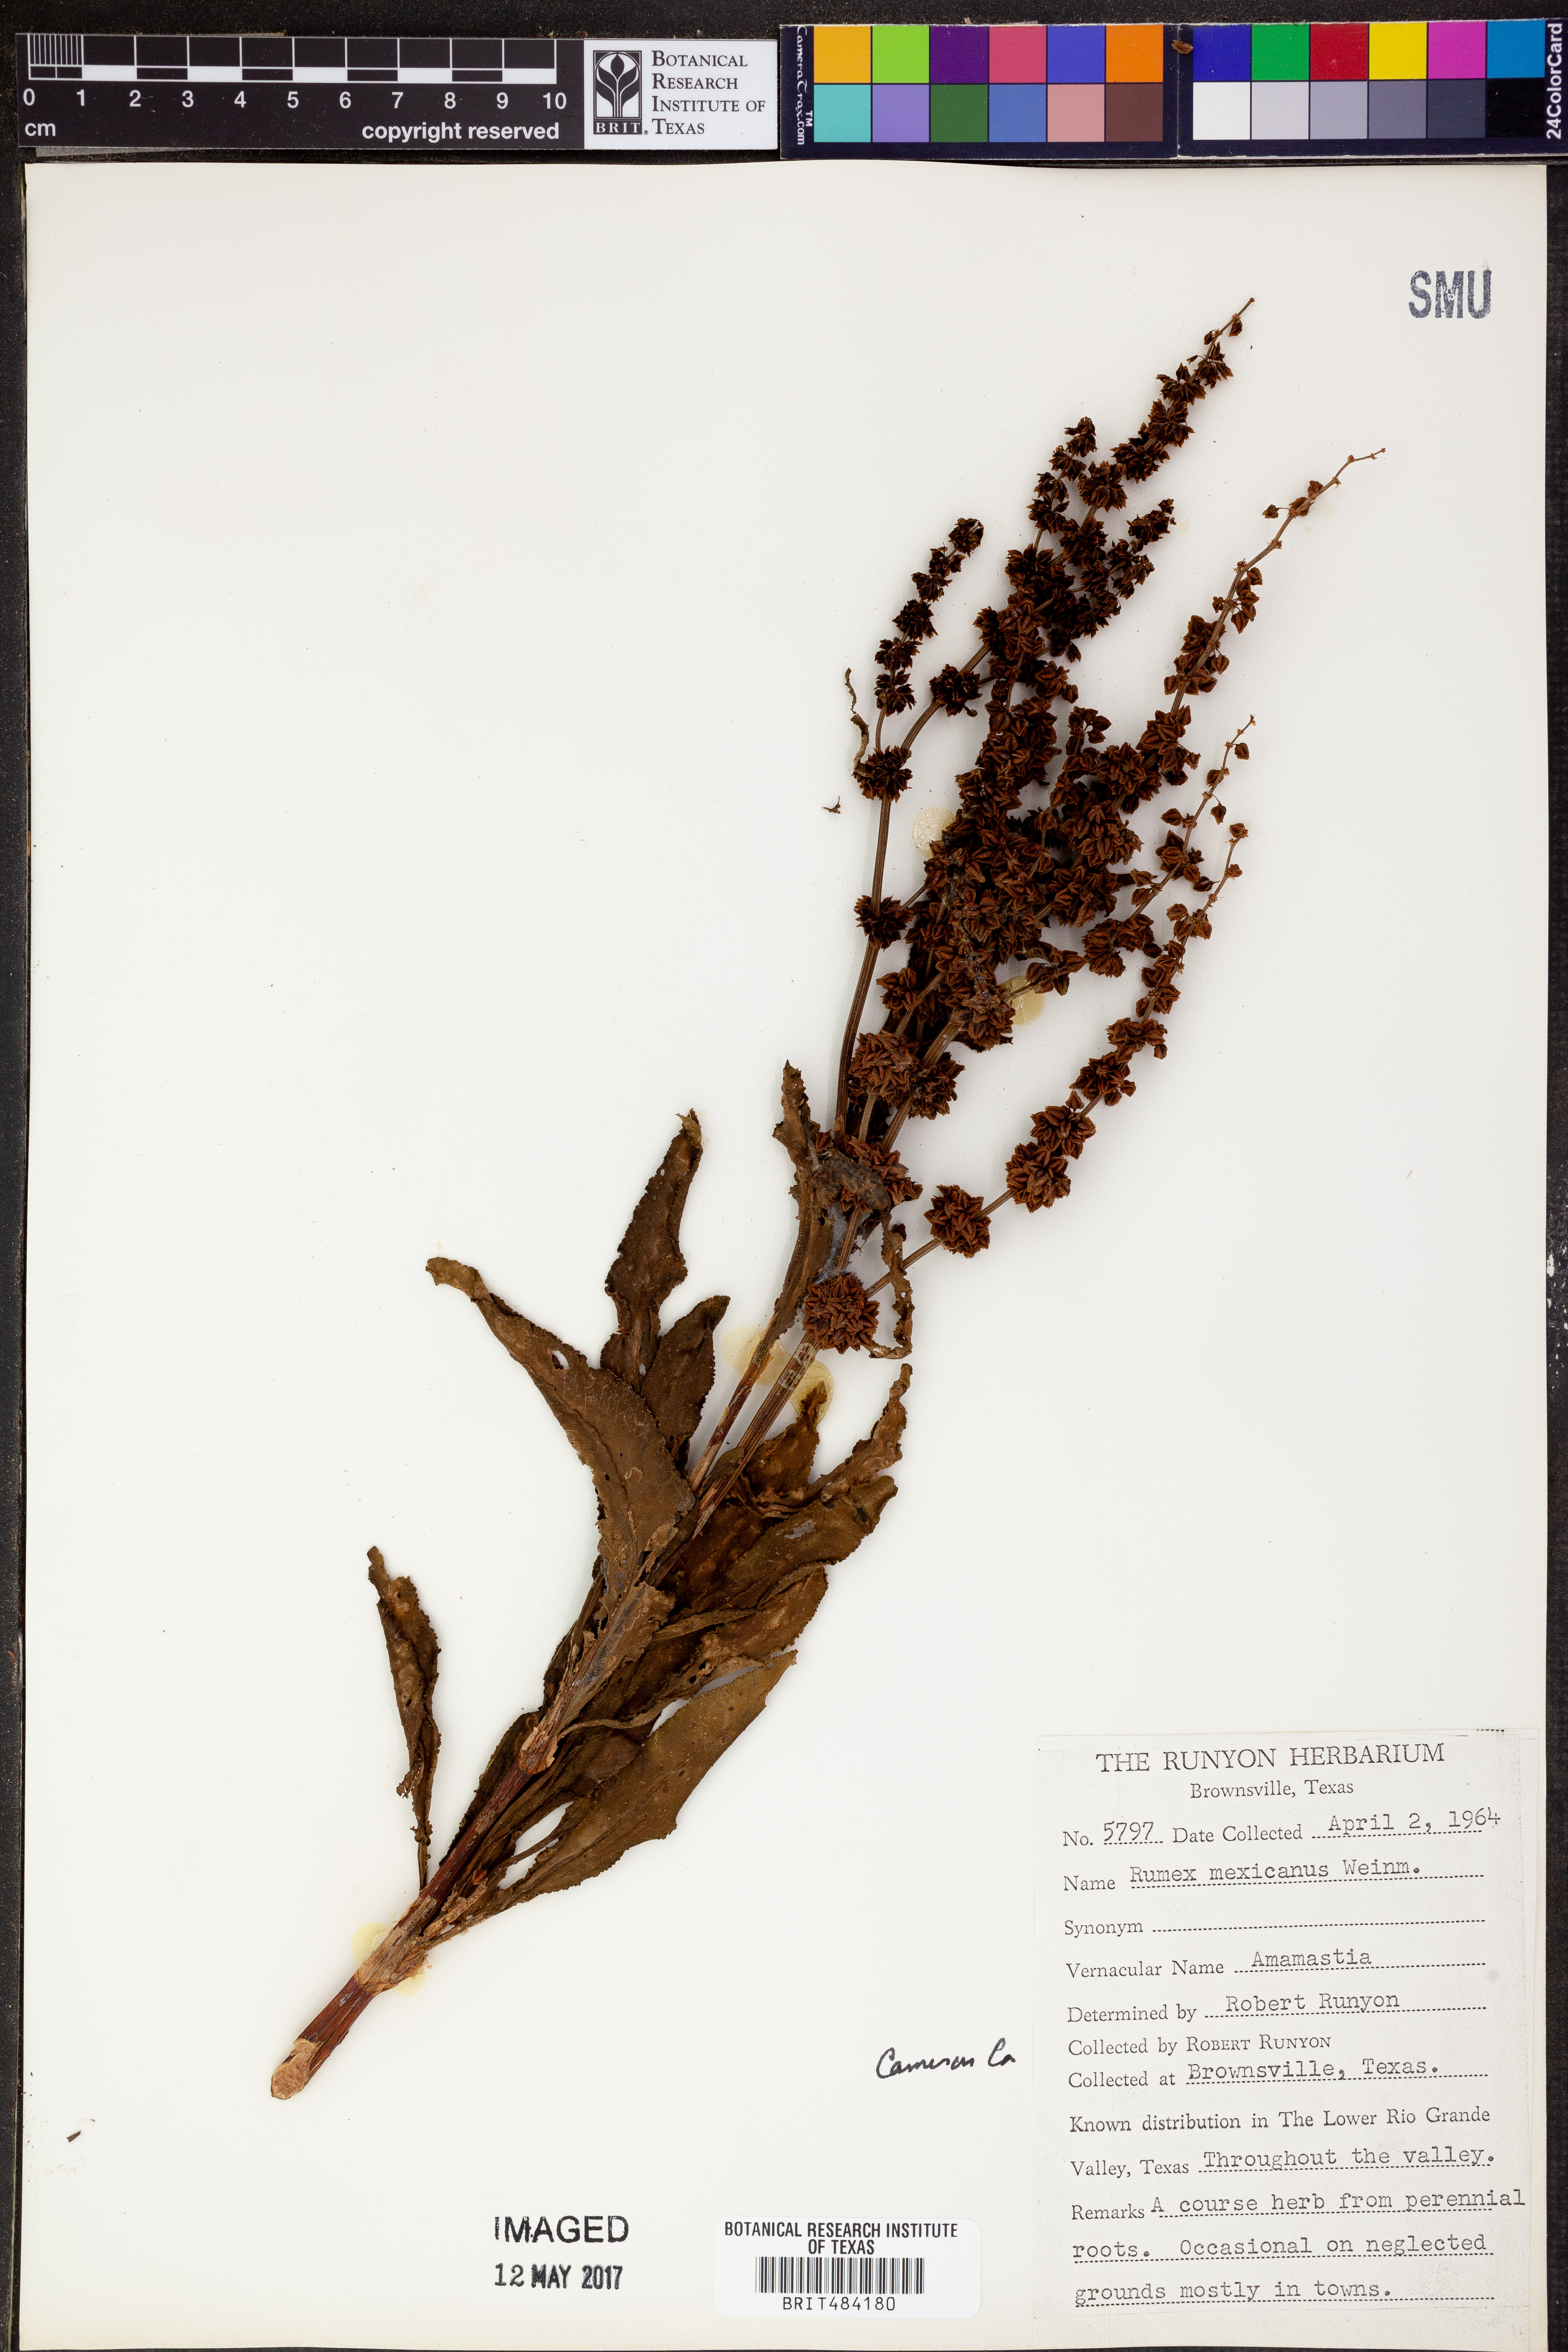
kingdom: Plantae
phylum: Tracheophyta
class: Magnoliopsida
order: Caryophyllales
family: Polygonaceae
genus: Rumex
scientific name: Rumex triangulivalvis
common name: Triangular-valve dock
